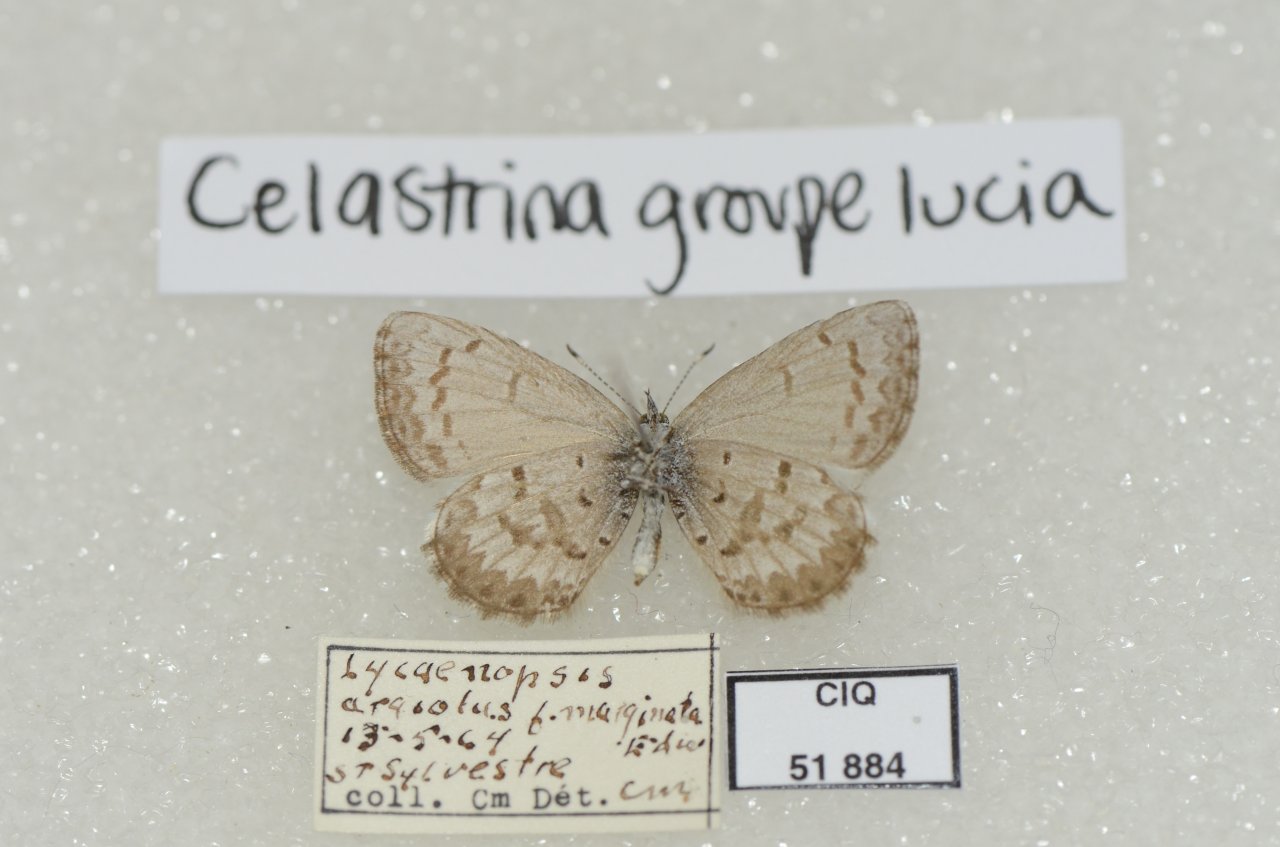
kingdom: Animalia
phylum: Arthropoda
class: Insecta
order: Lepidoptera
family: Lycaenidae
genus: Celastrina
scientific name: Celastrina lucia
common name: Northern Spring Azure
